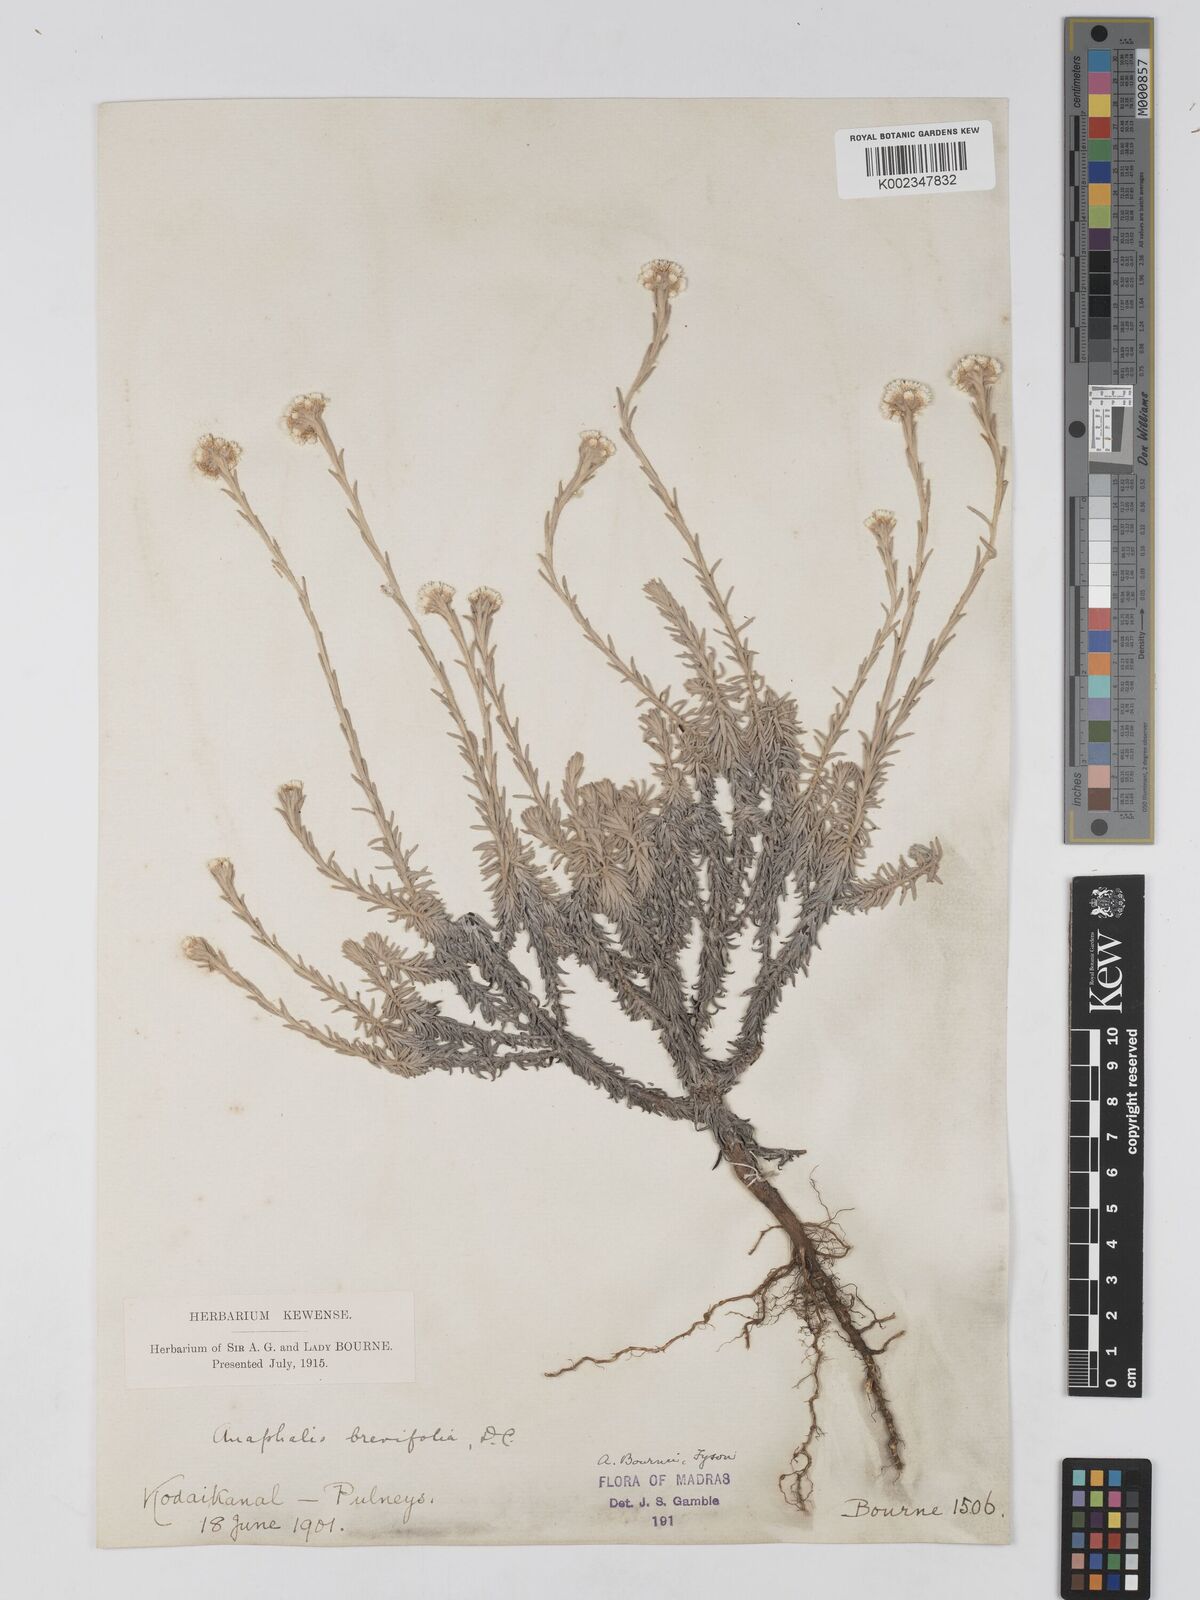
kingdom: Plantae
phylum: Tracheophyta
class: Magnoliopsida
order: Asterales
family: Asteraceae
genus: Anaphalis
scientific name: Anaphalis brevifolia
